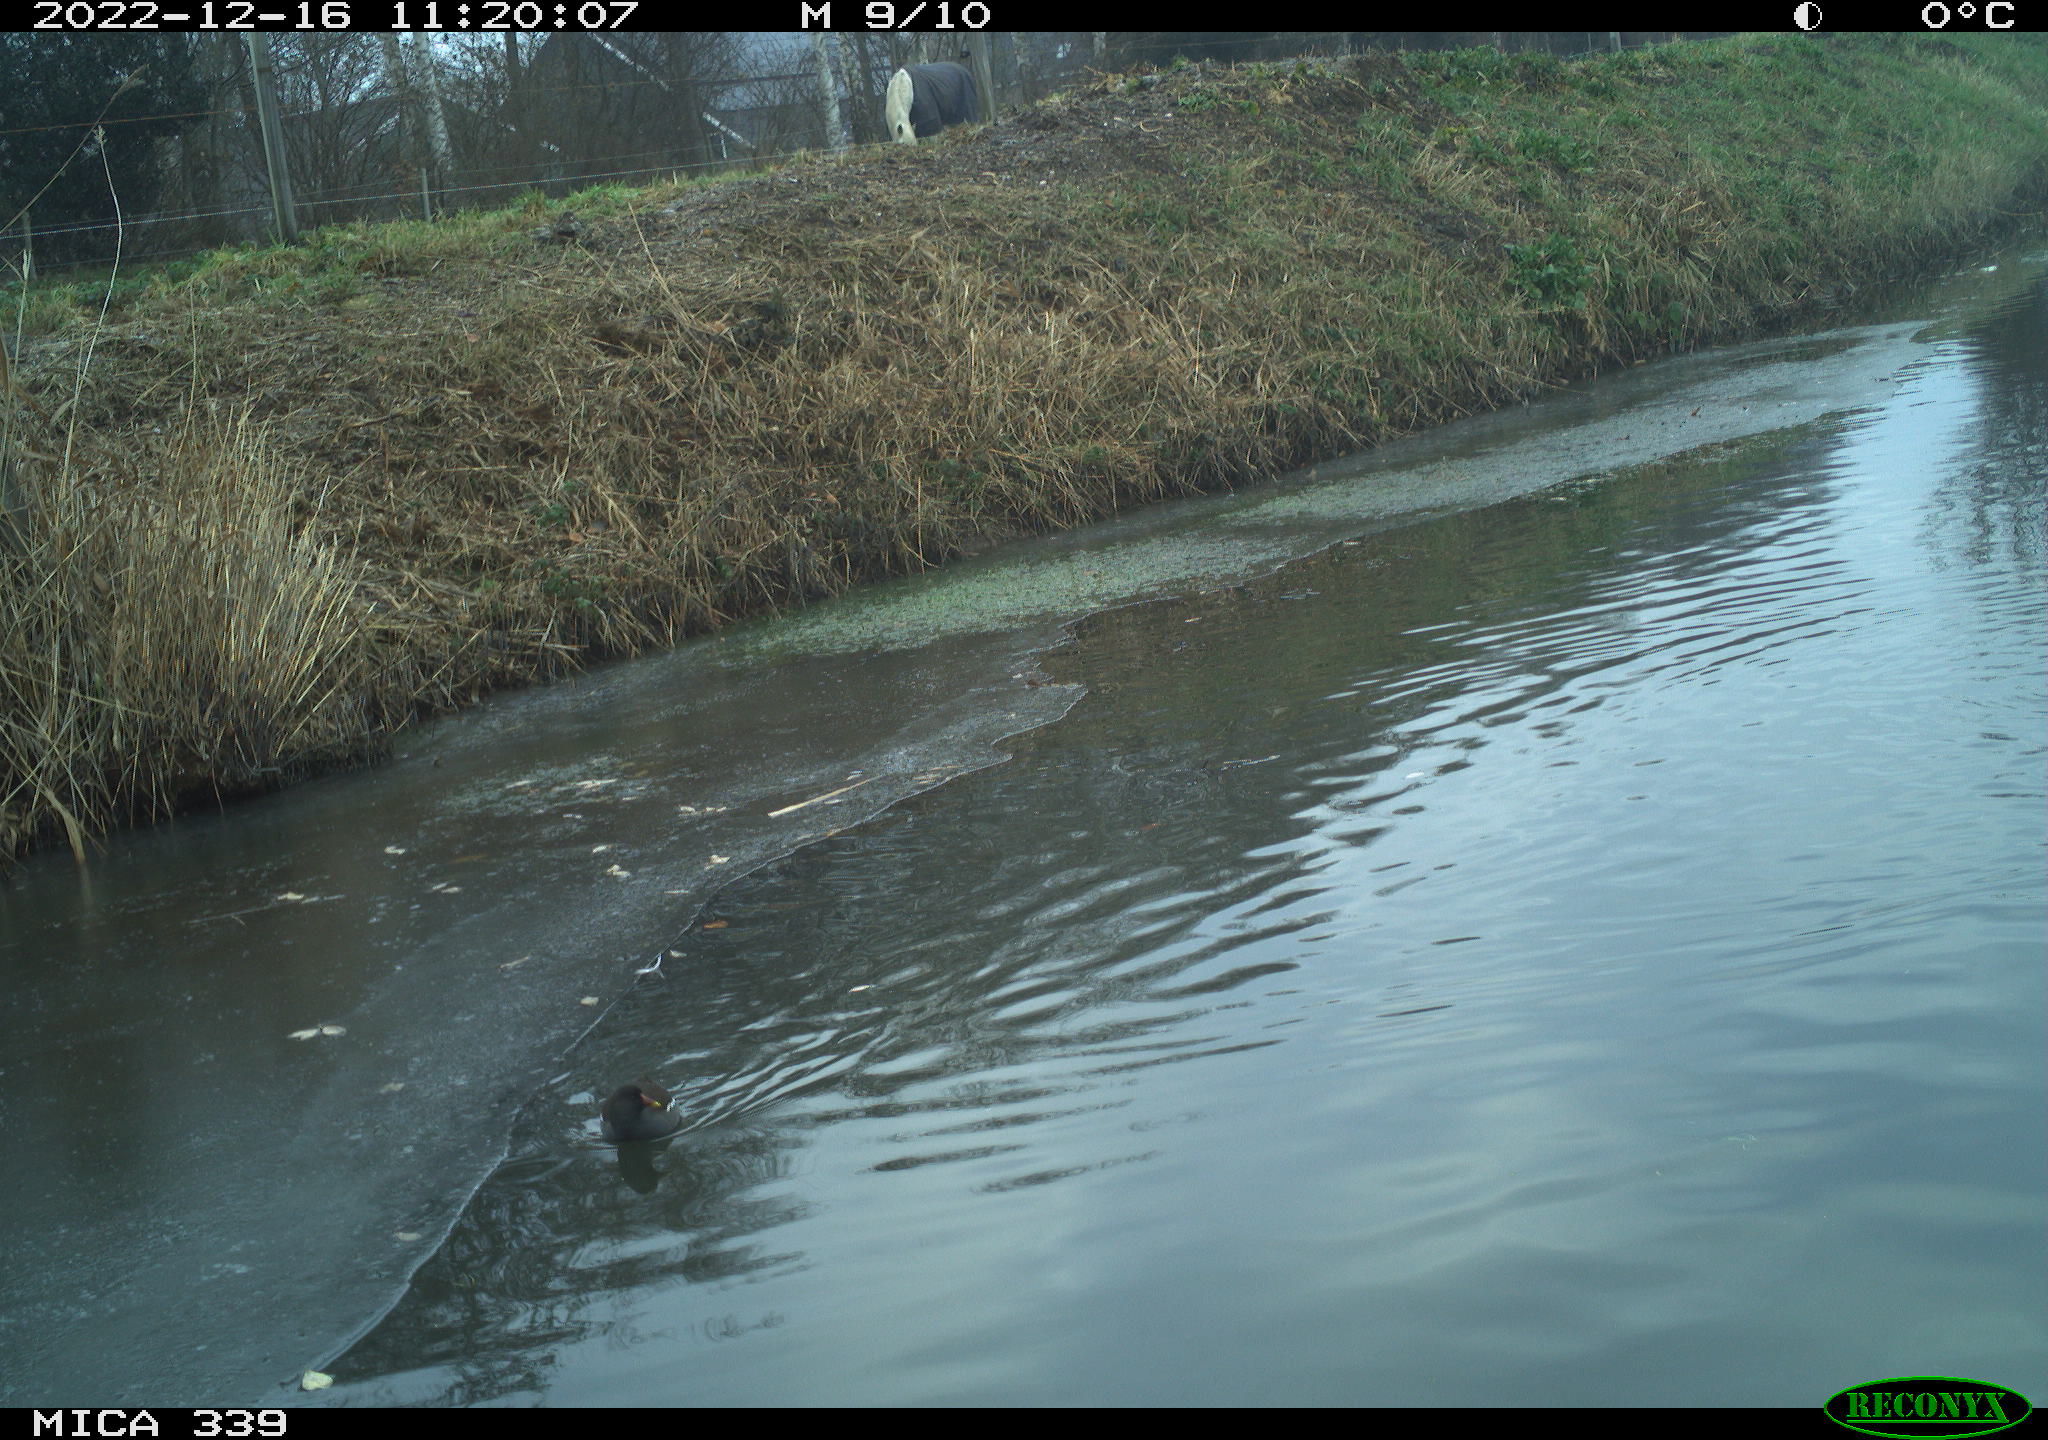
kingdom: Animalia
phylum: Chordata
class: Aves
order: Gruiformes
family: Rallidae
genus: Gallinula
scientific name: Gallinula chloropus
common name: Common moorhen
